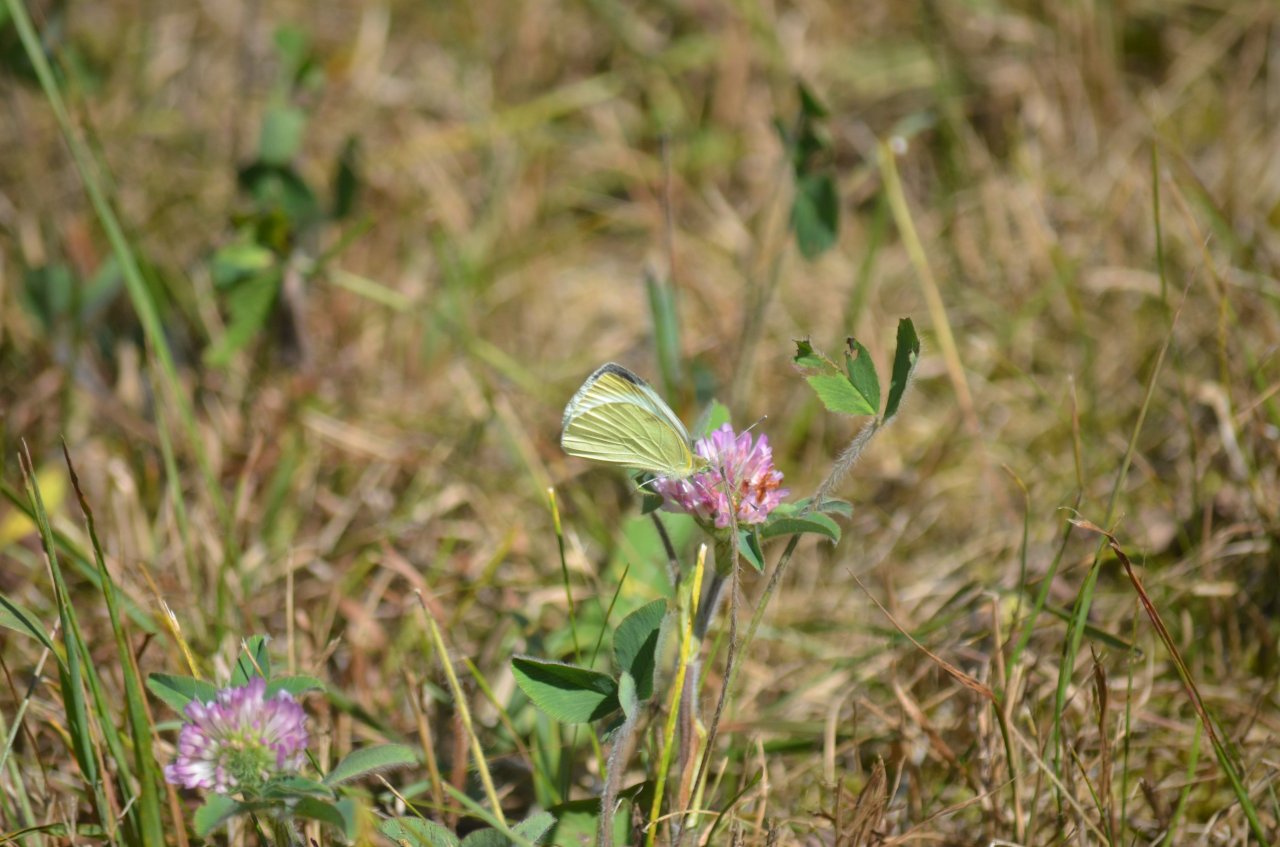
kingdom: Animalia
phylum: Arthropoda
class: Insecta
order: Lepidoptera
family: Pieridae
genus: Pieris
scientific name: Pieris rapae
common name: Cabbage White
